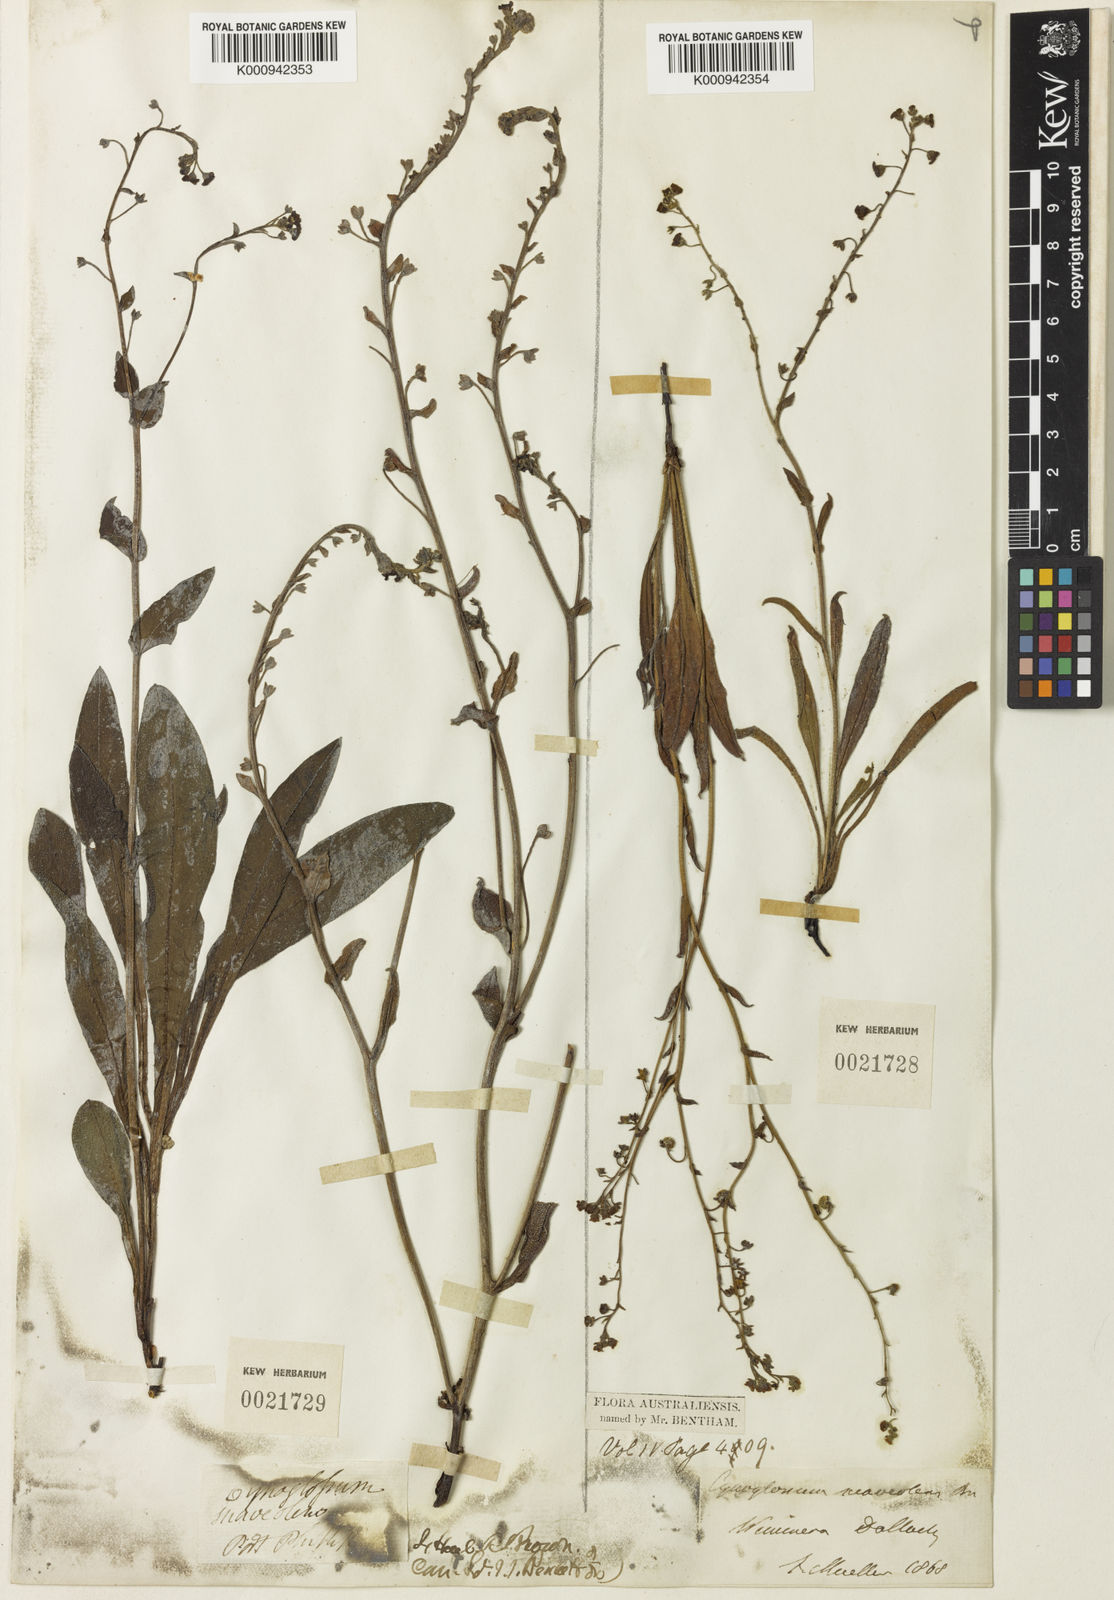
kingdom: Plantae
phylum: Tracheophyta
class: Magnoliopsida
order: Boraginales
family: Boraginaceae
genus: Hackelia
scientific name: Hackelia suaveolens
